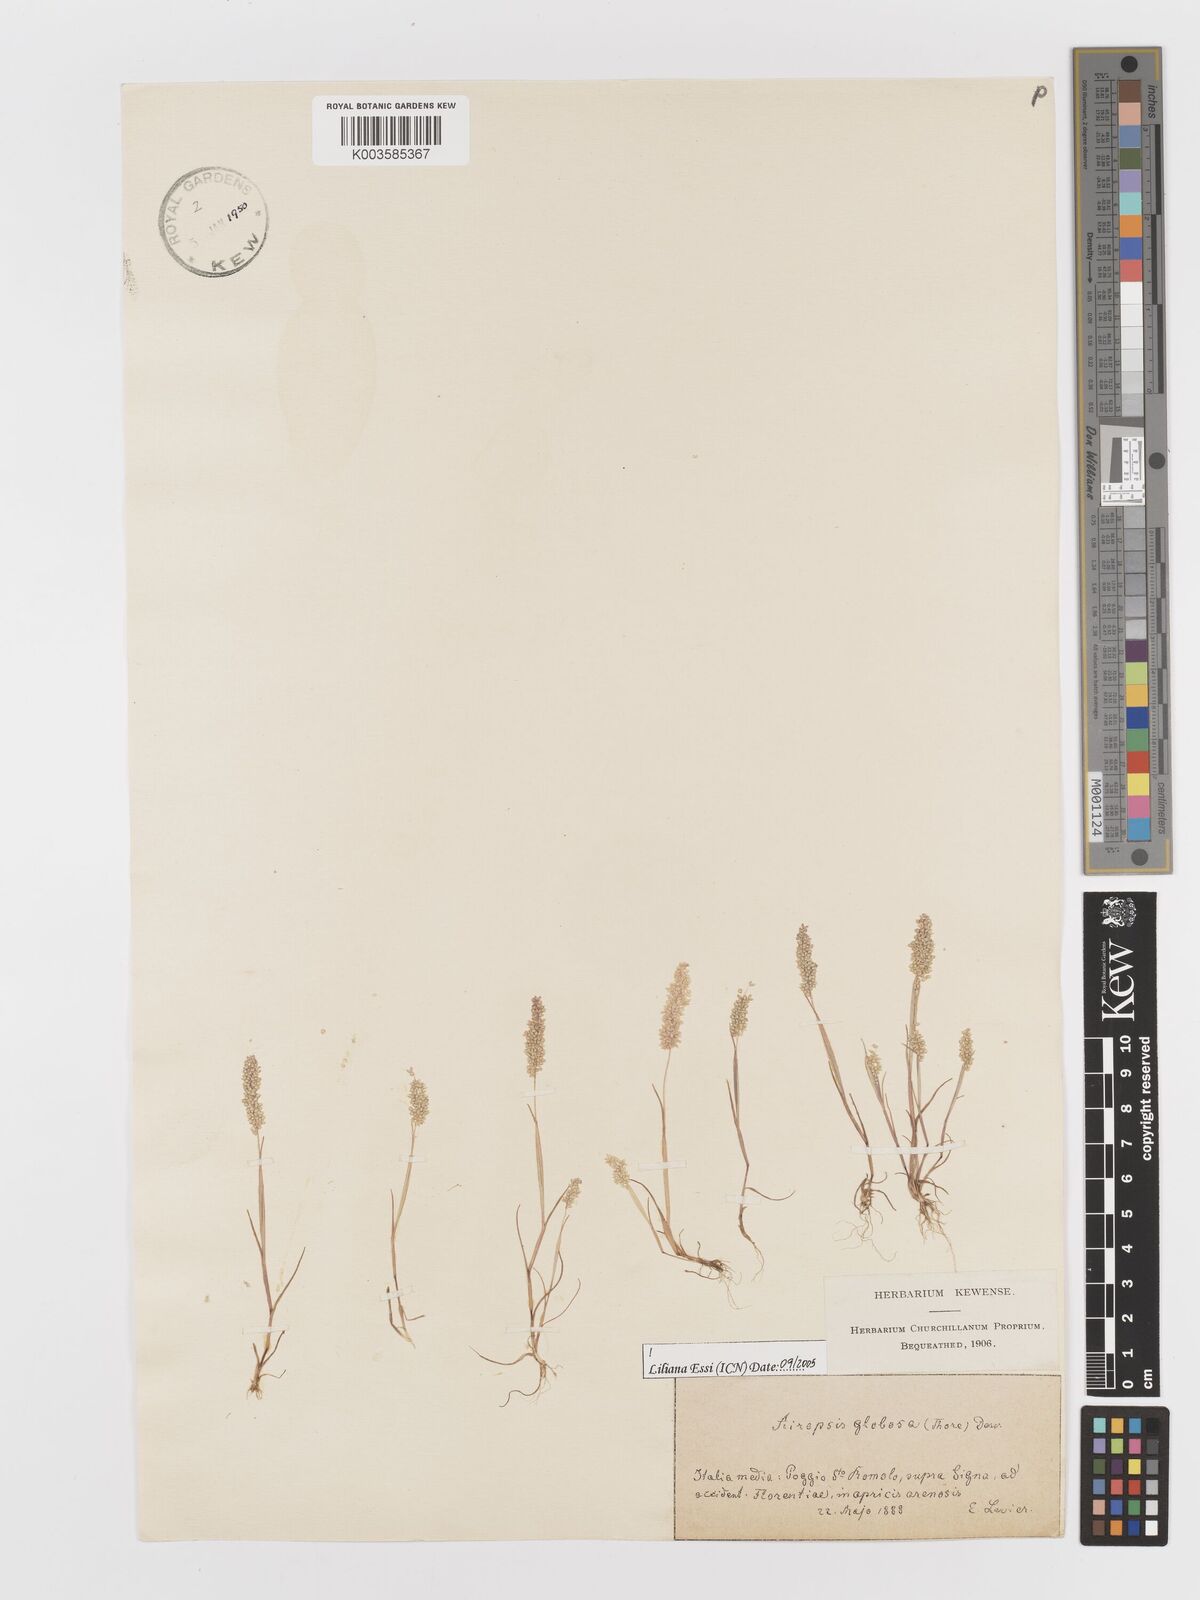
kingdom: Plantae
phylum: Tracheophyta
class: Liliopsida
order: Poales
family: Poaceae
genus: Airopsis
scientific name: Airopsis tenella
